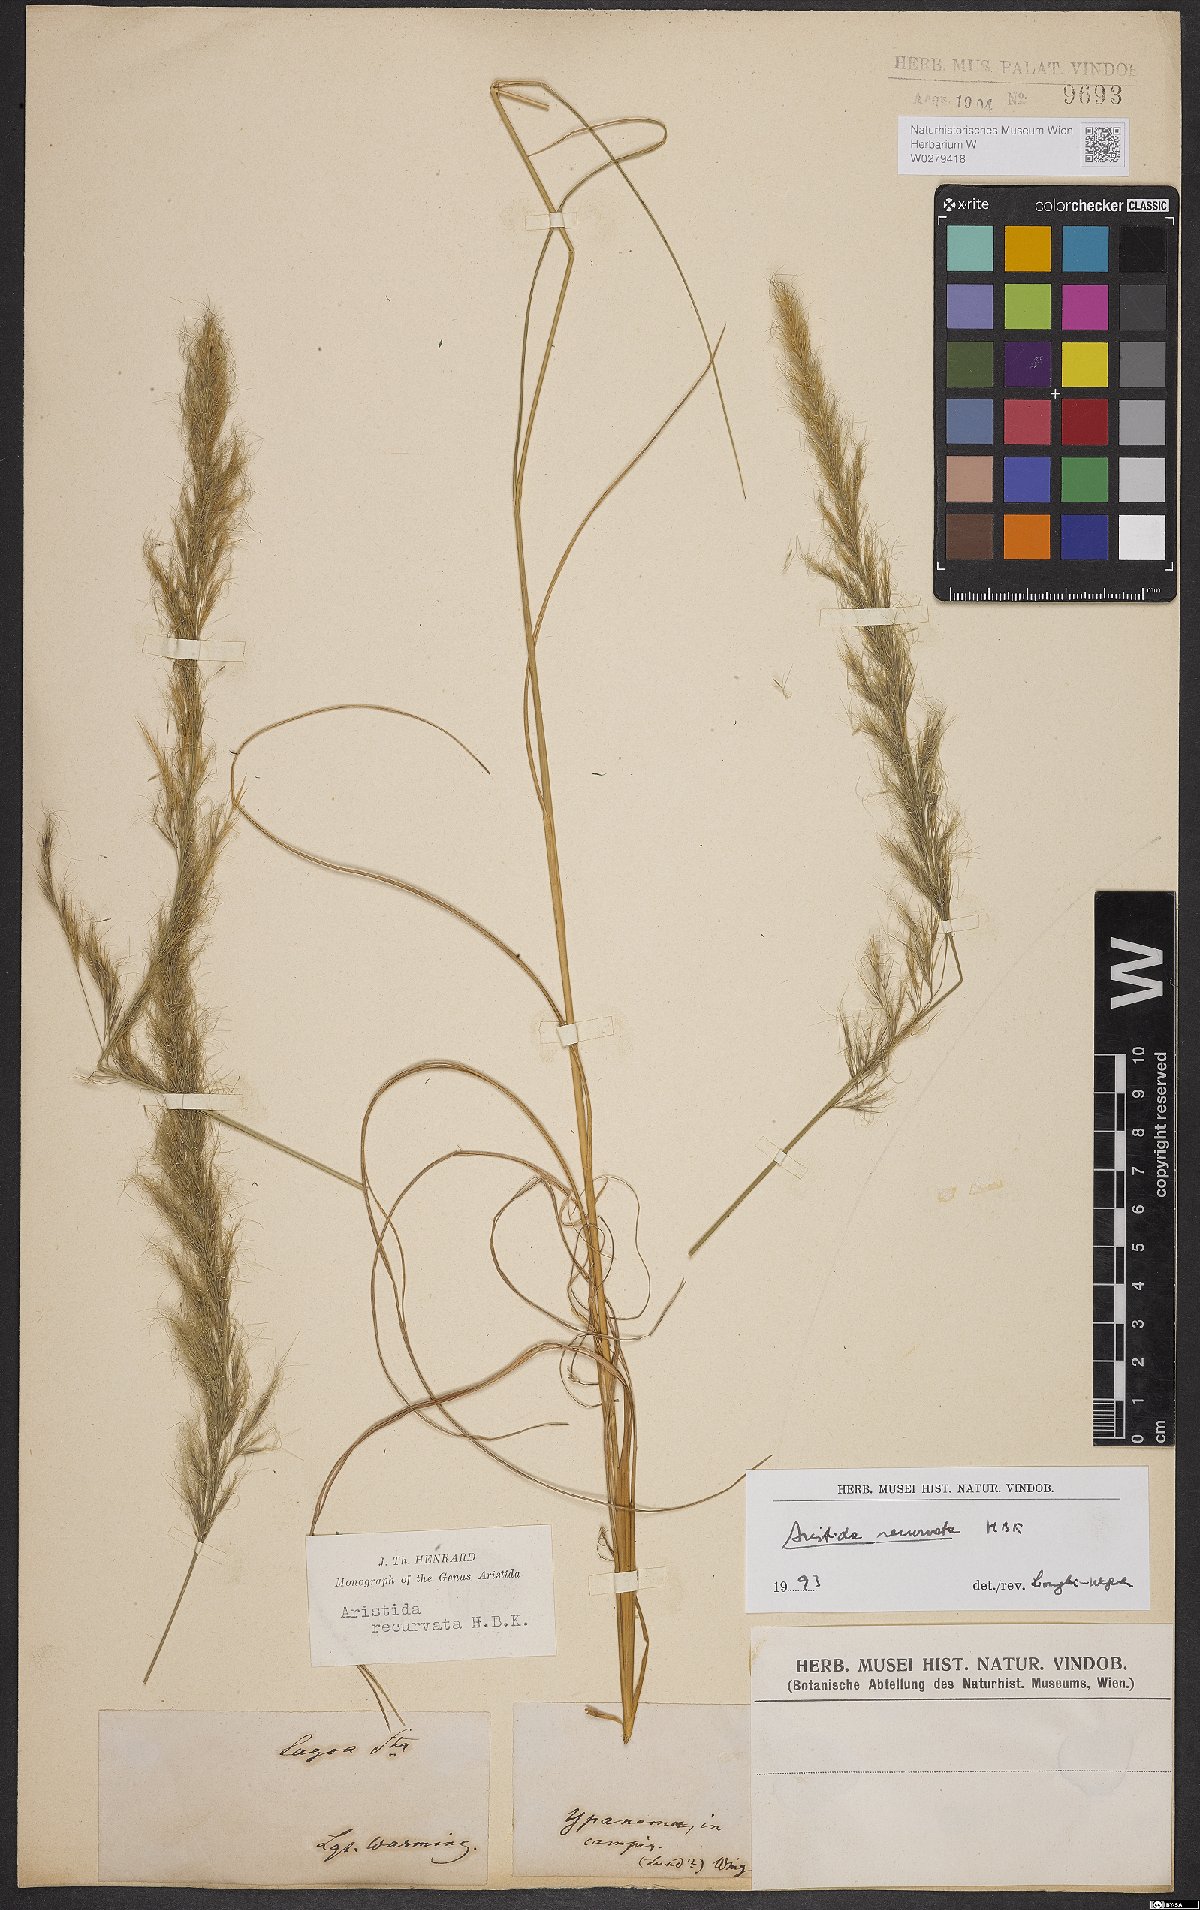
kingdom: Plantae
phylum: Tracheophyta
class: Liliopsida
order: Poales
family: Poaceae
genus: Aristida
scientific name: Aristida recurvata
